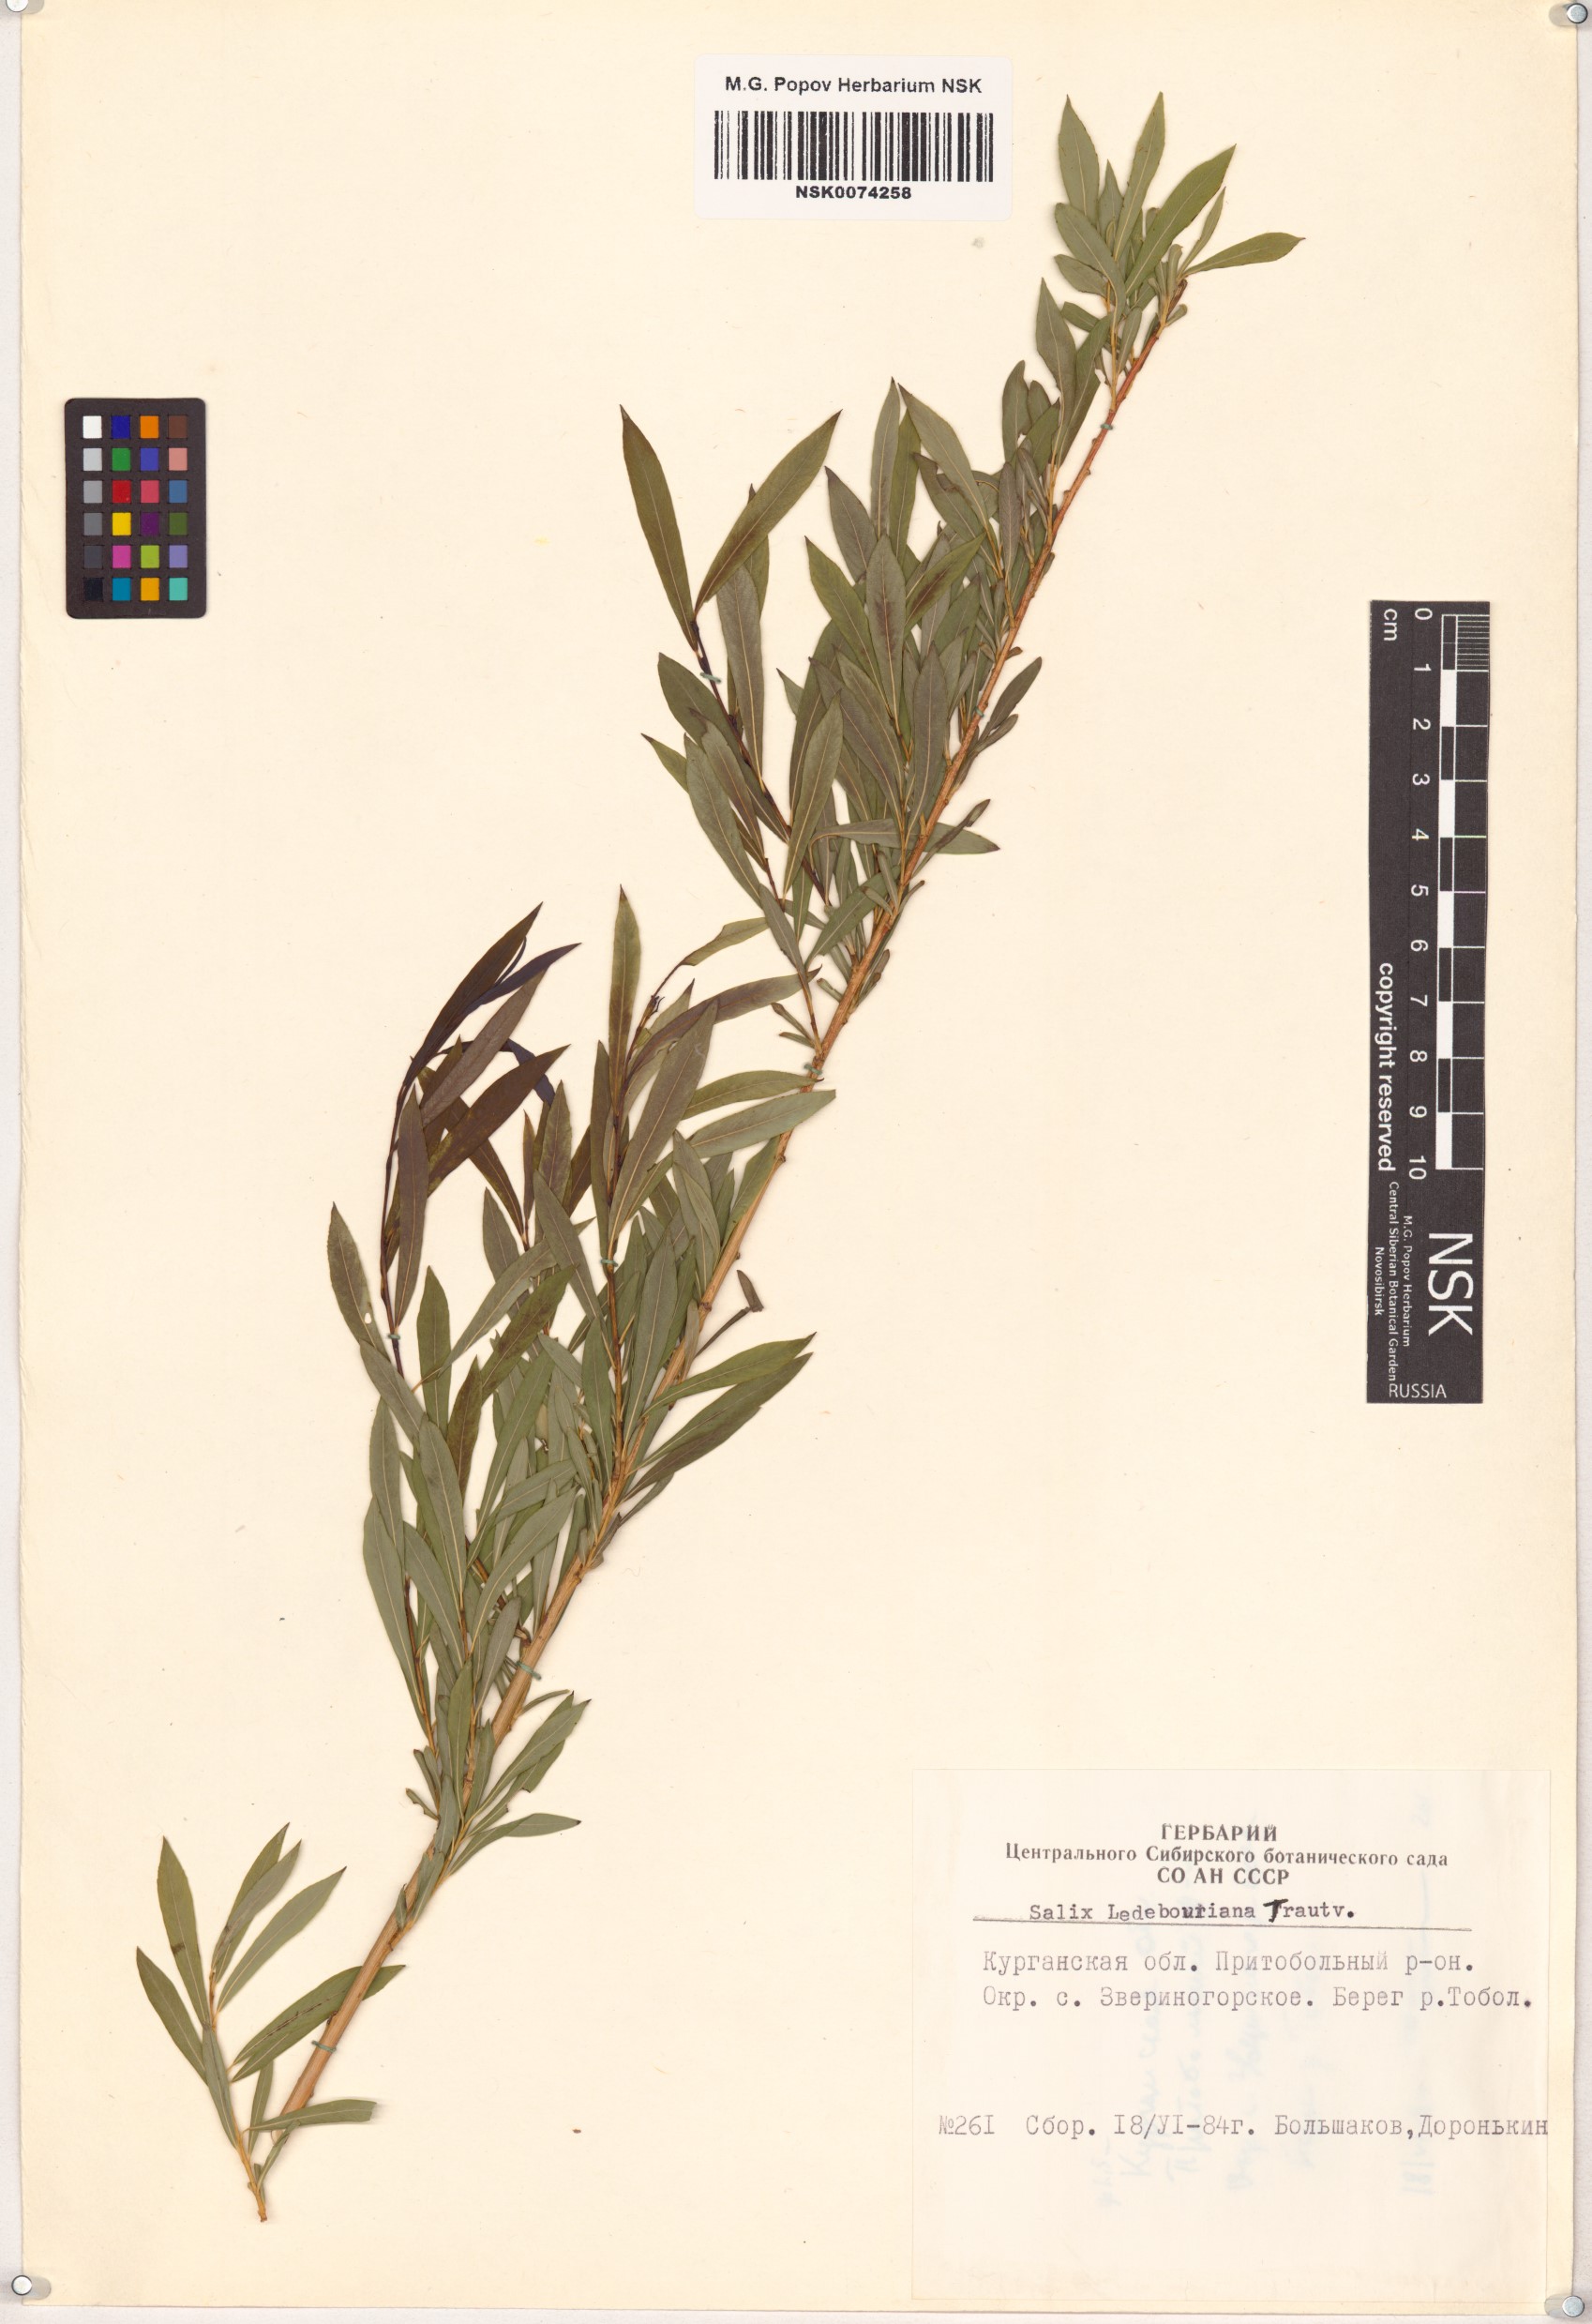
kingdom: Plantae
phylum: Tracheophyta
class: Magnoliopsida
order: Malpighiales
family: Salicaceae
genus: Salix
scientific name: Salix ledebouriana
